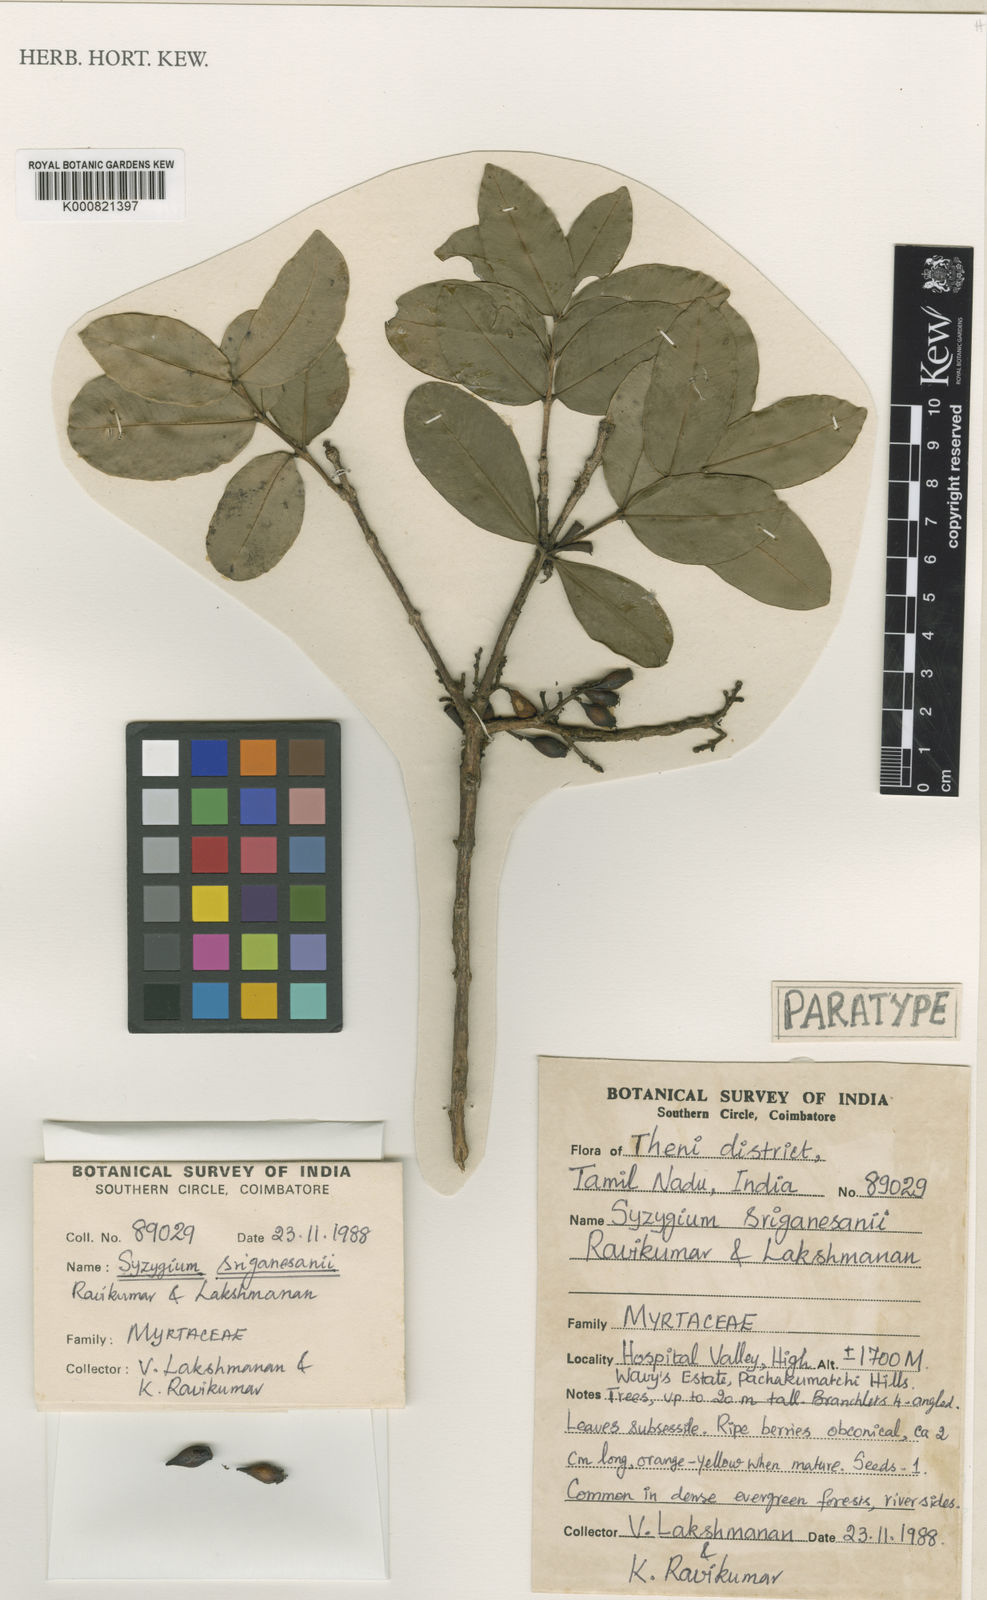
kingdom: Plantae
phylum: Tracheophyta
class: Magnoliopsida
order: Myrtales
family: Myrtaceae
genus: Syzygium
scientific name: Syzygium sriganesanii
